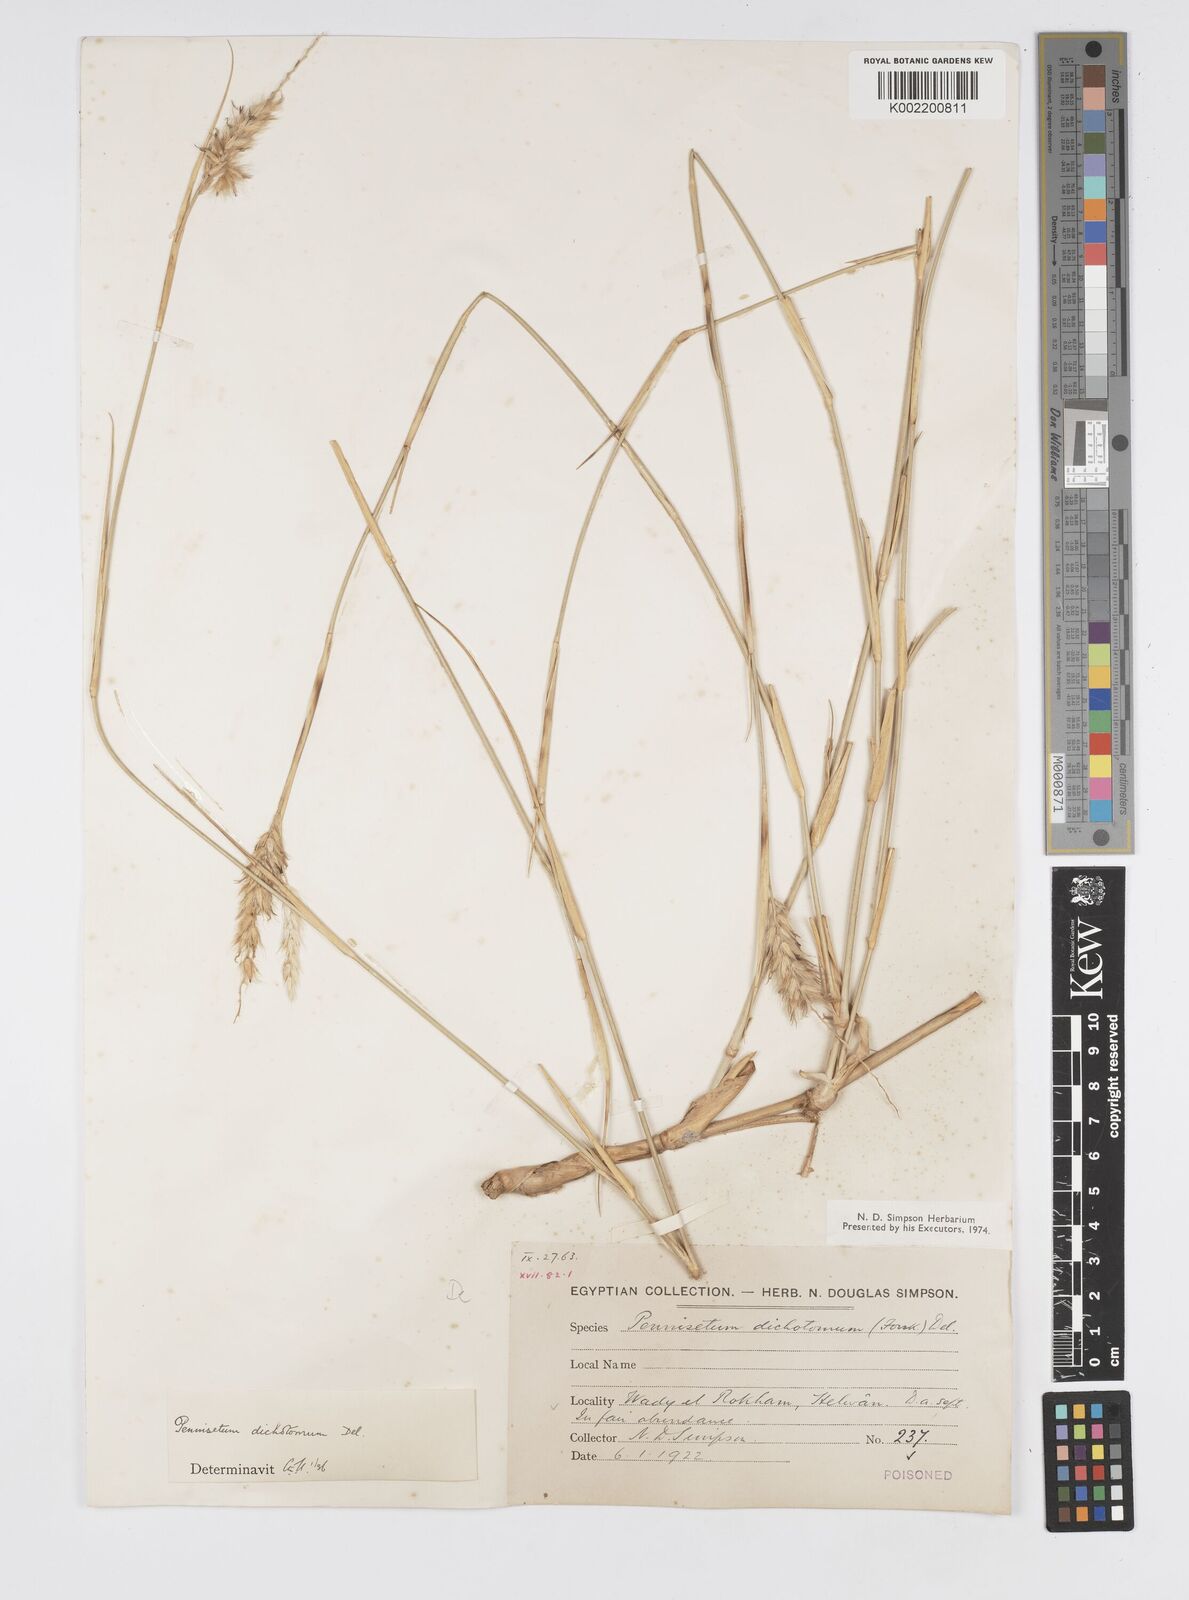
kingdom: Plantae
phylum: Tracheophyta
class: Liliopsida
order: Poales
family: Poaceae
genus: Cenchrus
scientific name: Cenchrus divisus
